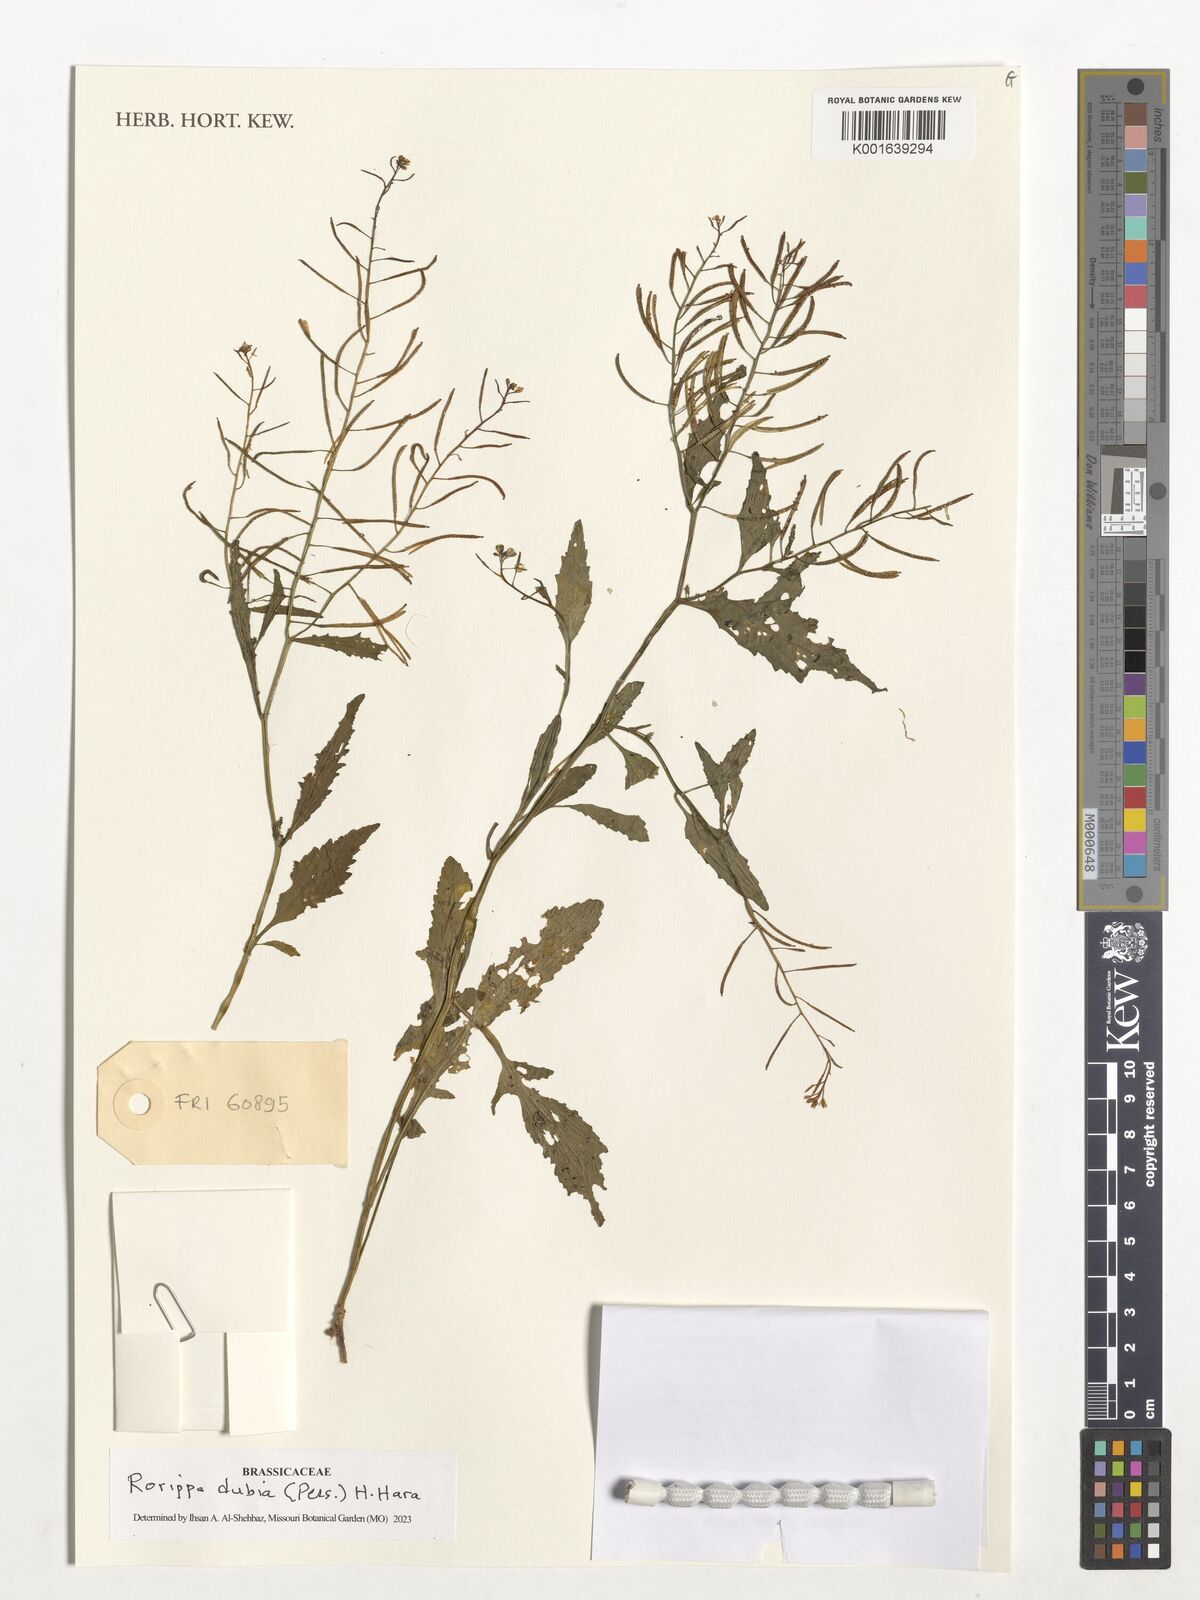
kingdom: Plantae
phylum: Tracheophyta
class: Magnoliopsida
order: Brassicales
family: Brassicaceae
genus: Rorippa
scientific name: Rorippa dubia
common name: Variableleaf yellowcress
